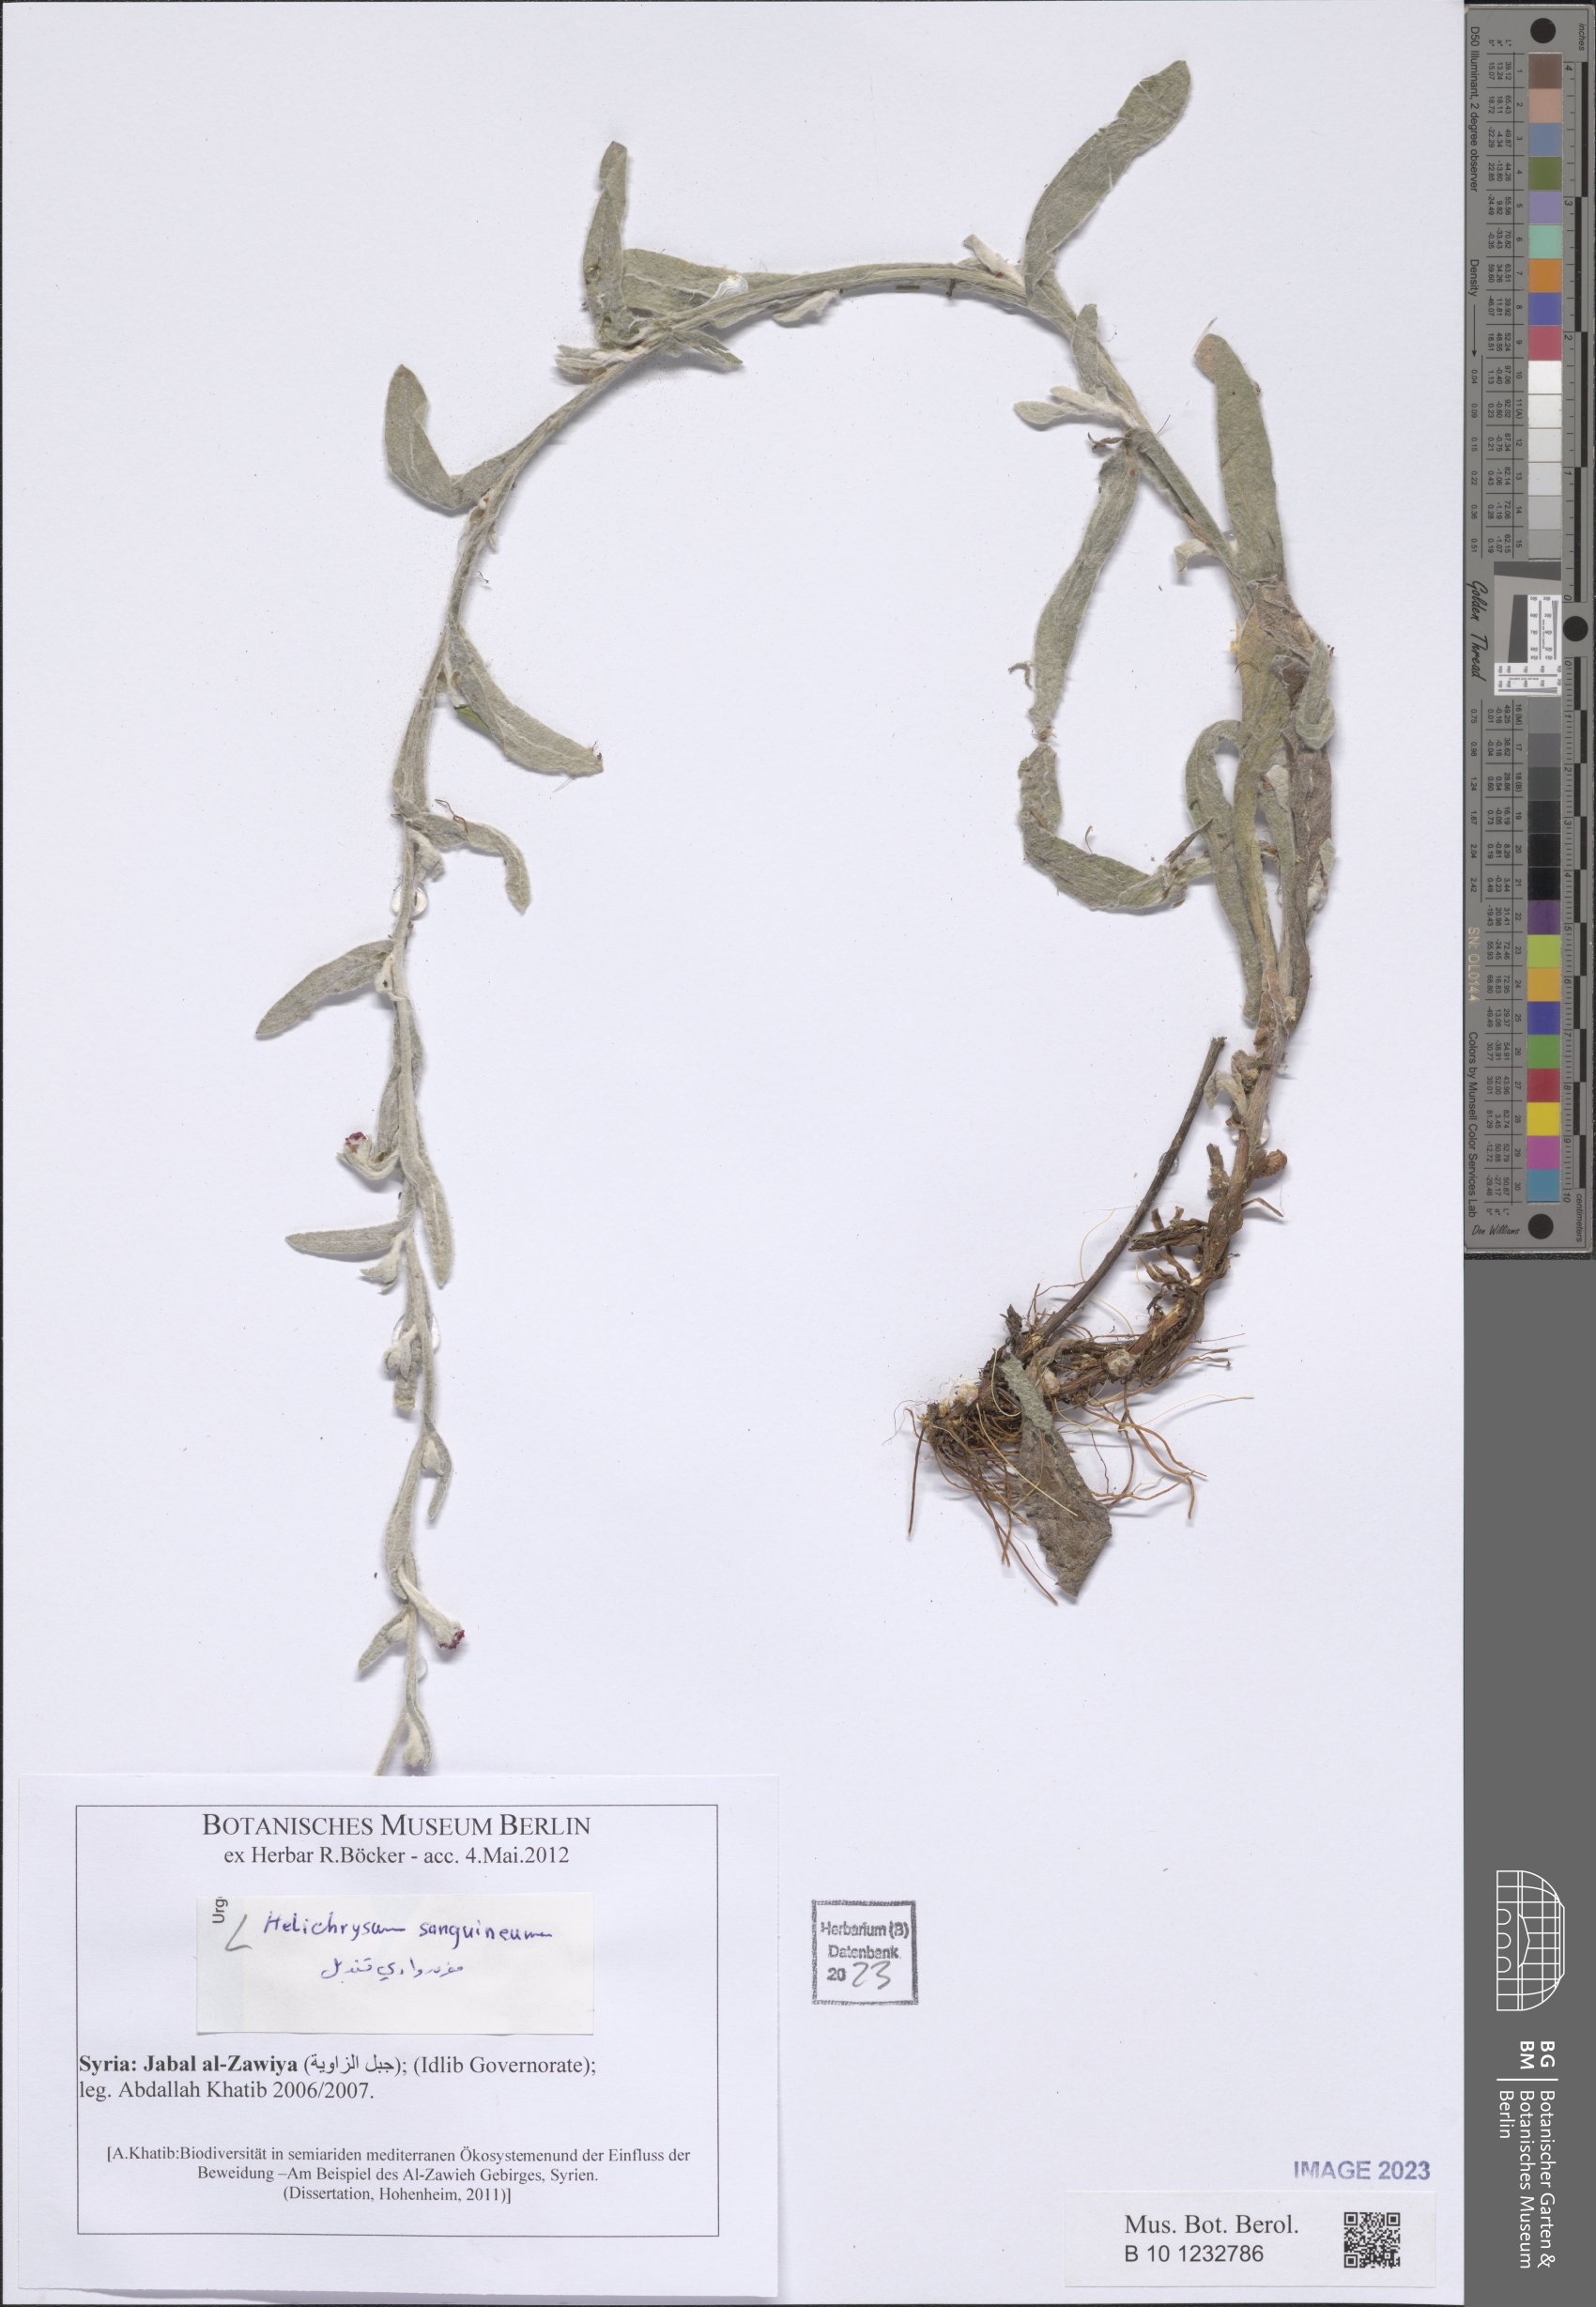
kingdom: Plantae
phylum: Tracheophyta
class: Magnoliopsida
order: Asterales
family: Asteraceae
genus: Helichrysum
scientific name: Helichrysum sanguineum
